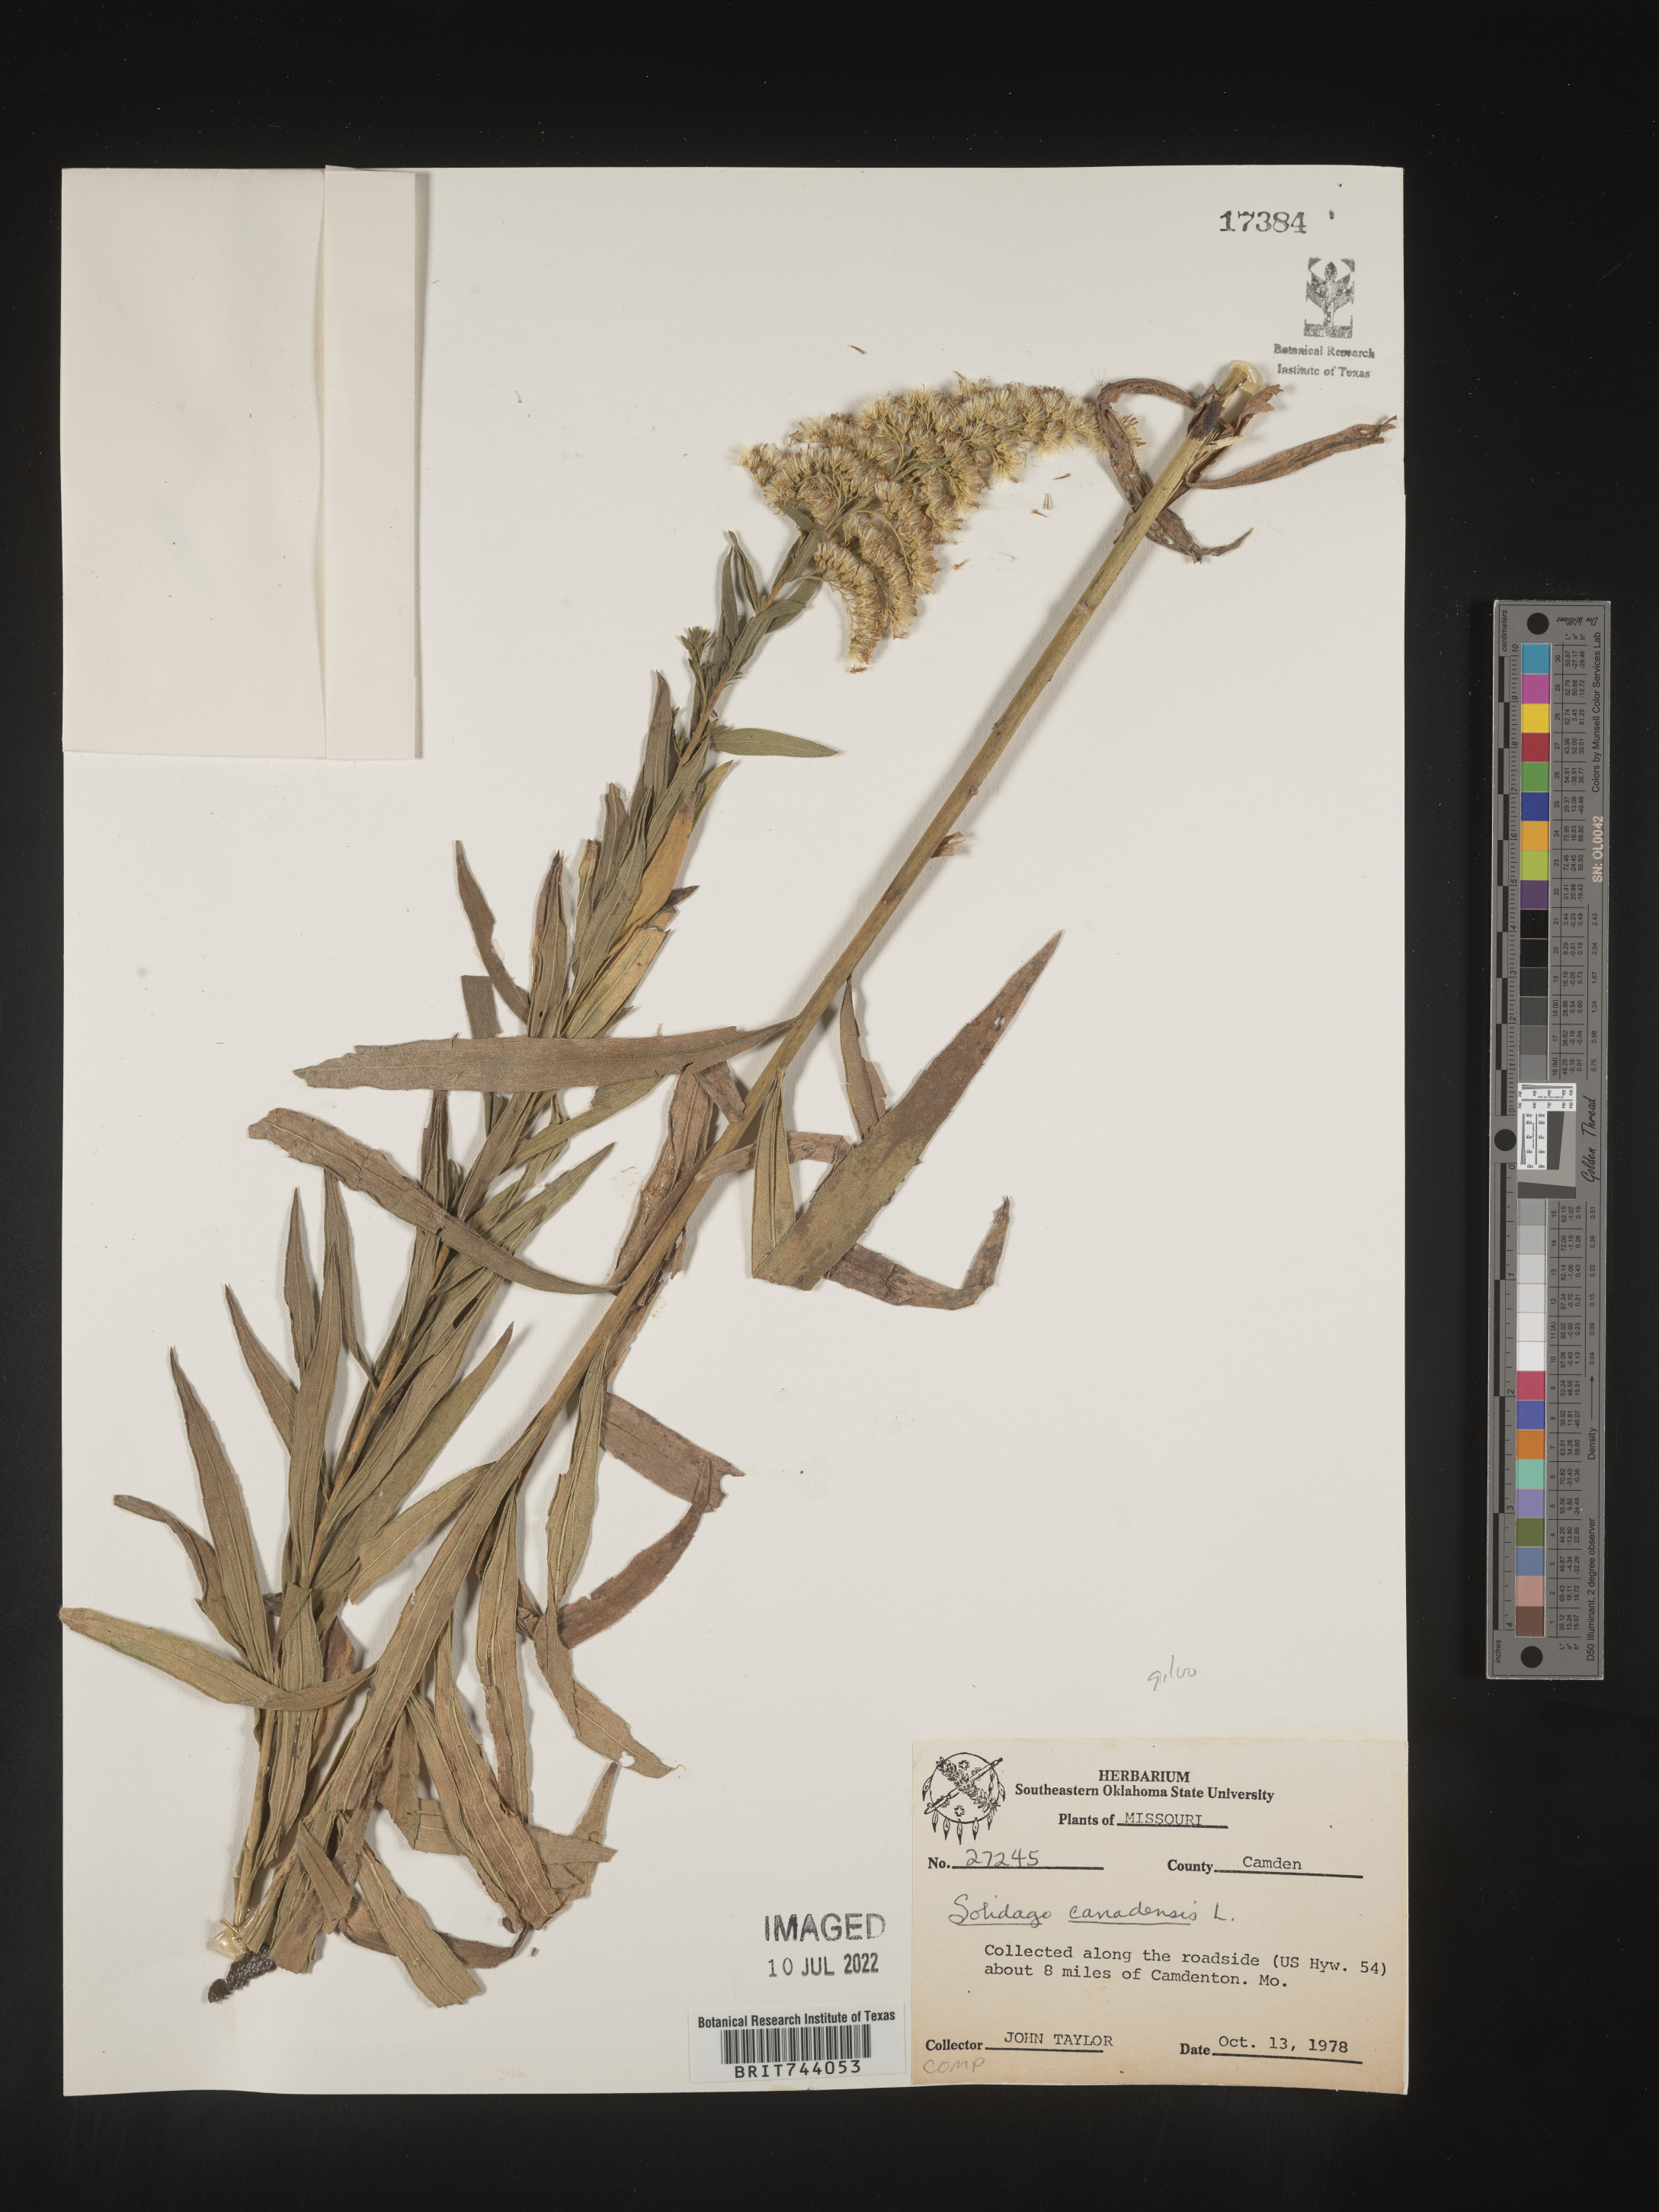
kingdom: Plantae
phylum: Tracheophyta
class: Magnoliopsida
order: Asterales
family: Asteraceae
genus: Solidago
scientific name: Solidago altissima
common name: Late goldenrod
